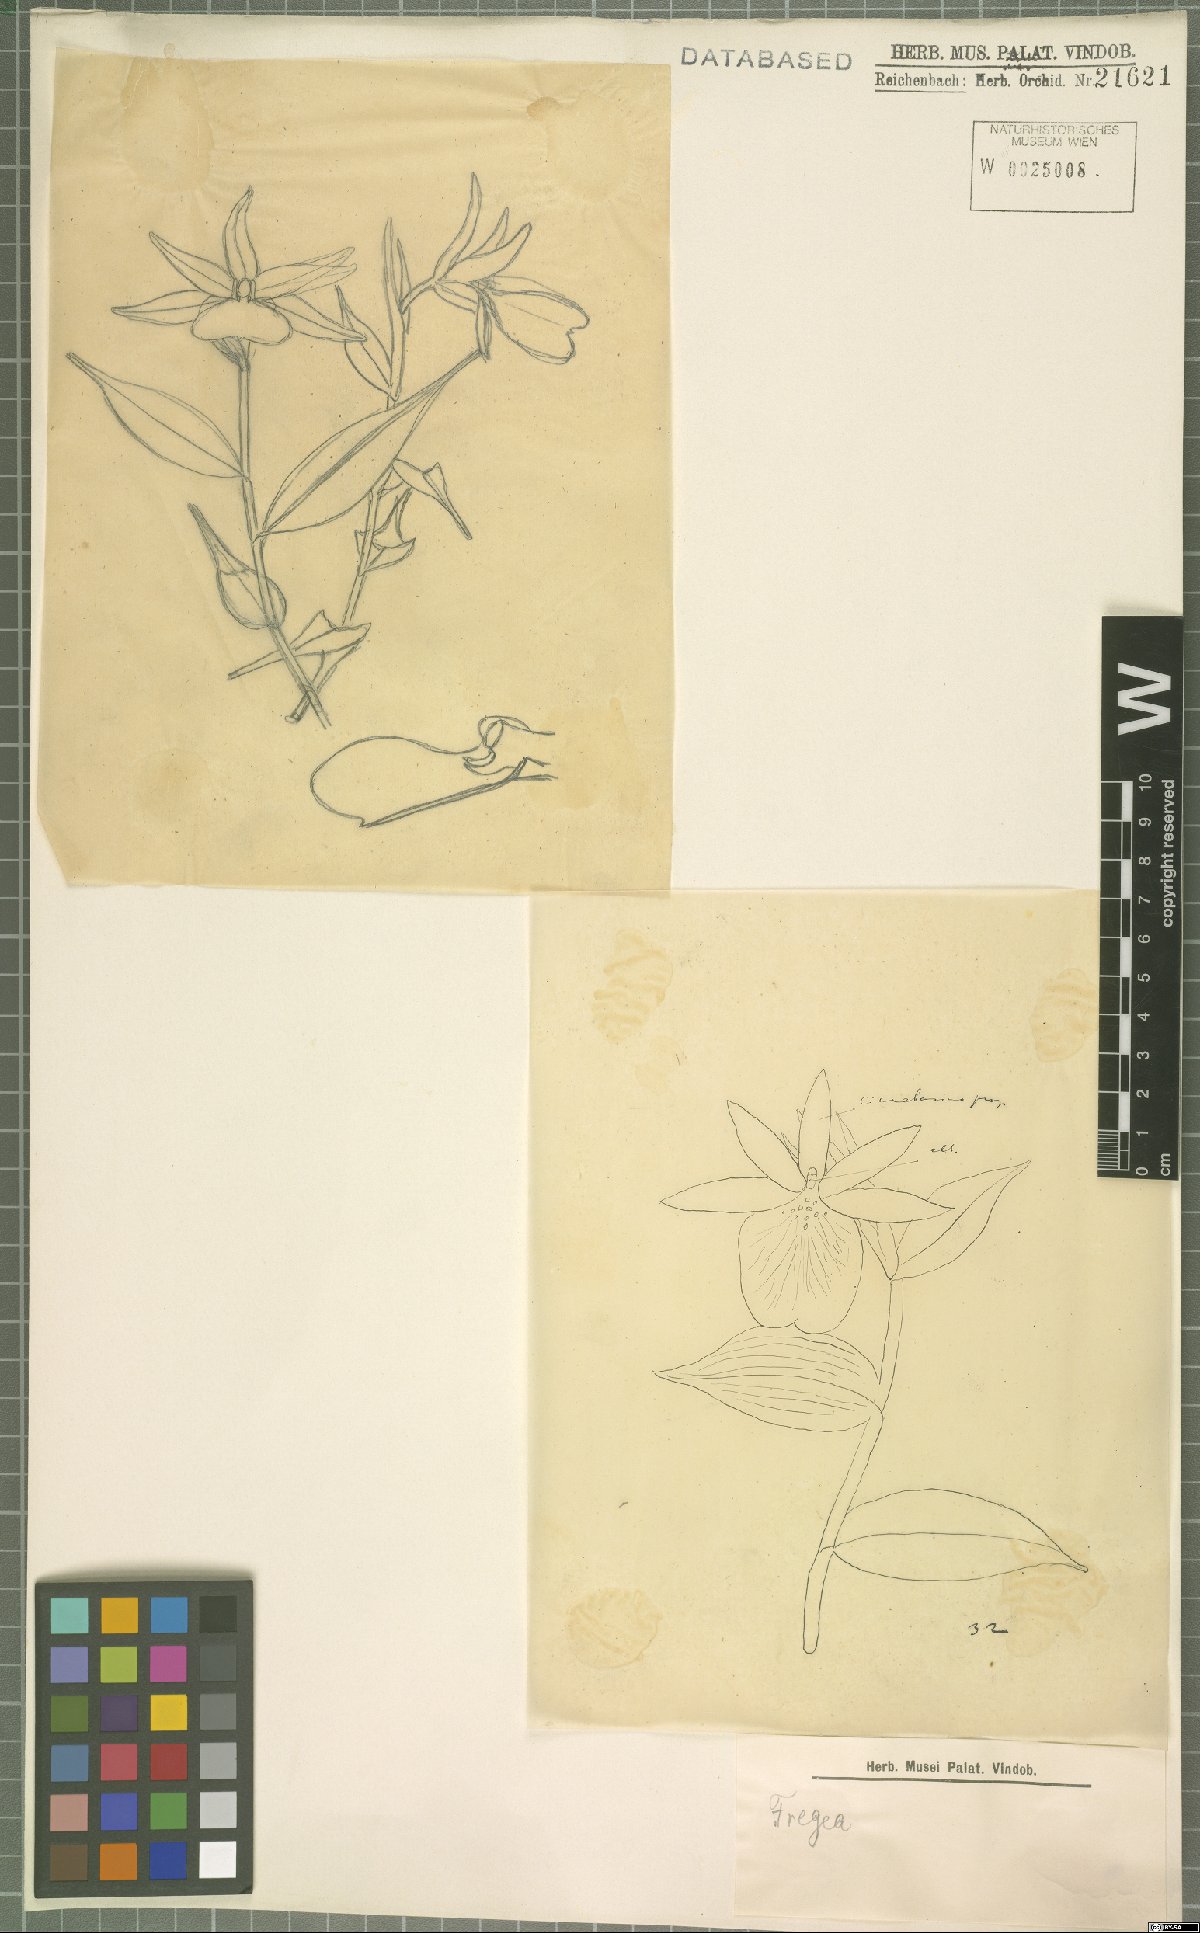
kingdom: Plantae
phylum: Tracheophyta
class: Liliopsida
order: Asparagales
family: Orchidaceae
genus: Sobralia
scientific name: Sobralia
